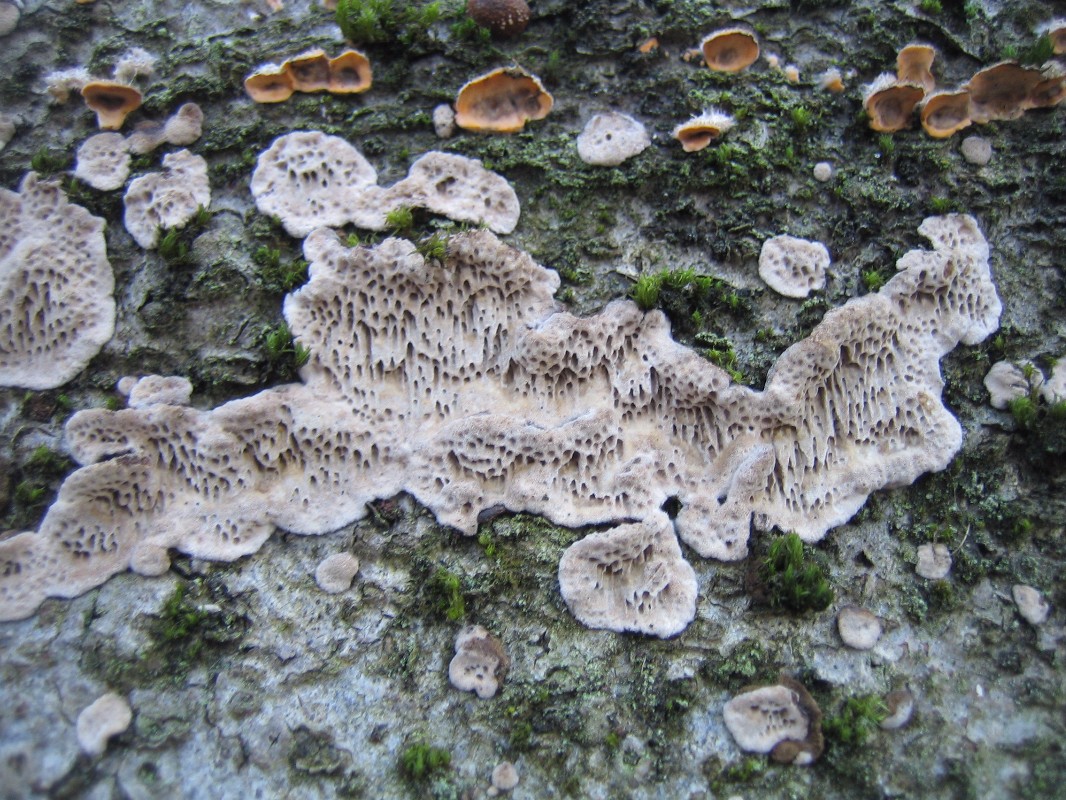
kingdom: Fungi
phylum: Basidiomycota
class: Agaricomycetes
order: Polyporales
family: Polyporaceae
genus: Podofomes
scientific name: Podofomes mollis
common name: blød begporesvamp
